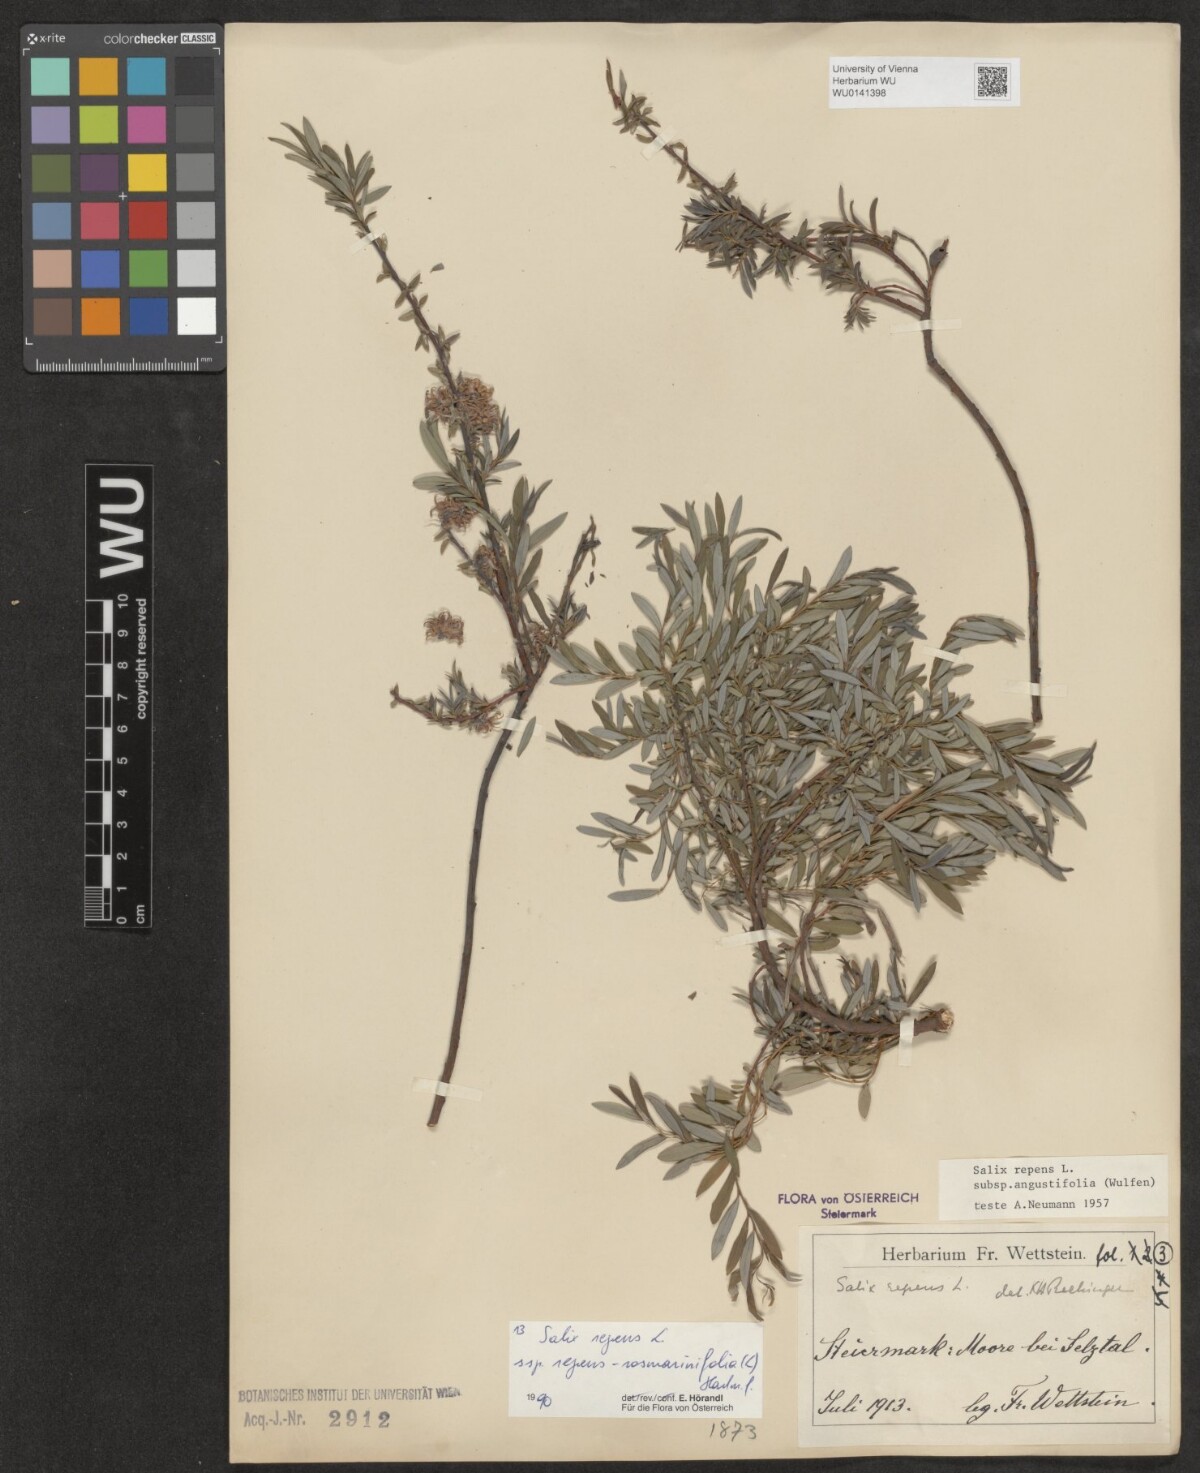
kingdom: Plantae
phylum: Tracheophyta
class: Magnoliopsida
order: Malpighiales
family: Salicaceae
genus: Salix
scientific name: Salix repens
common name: Creeping willow
